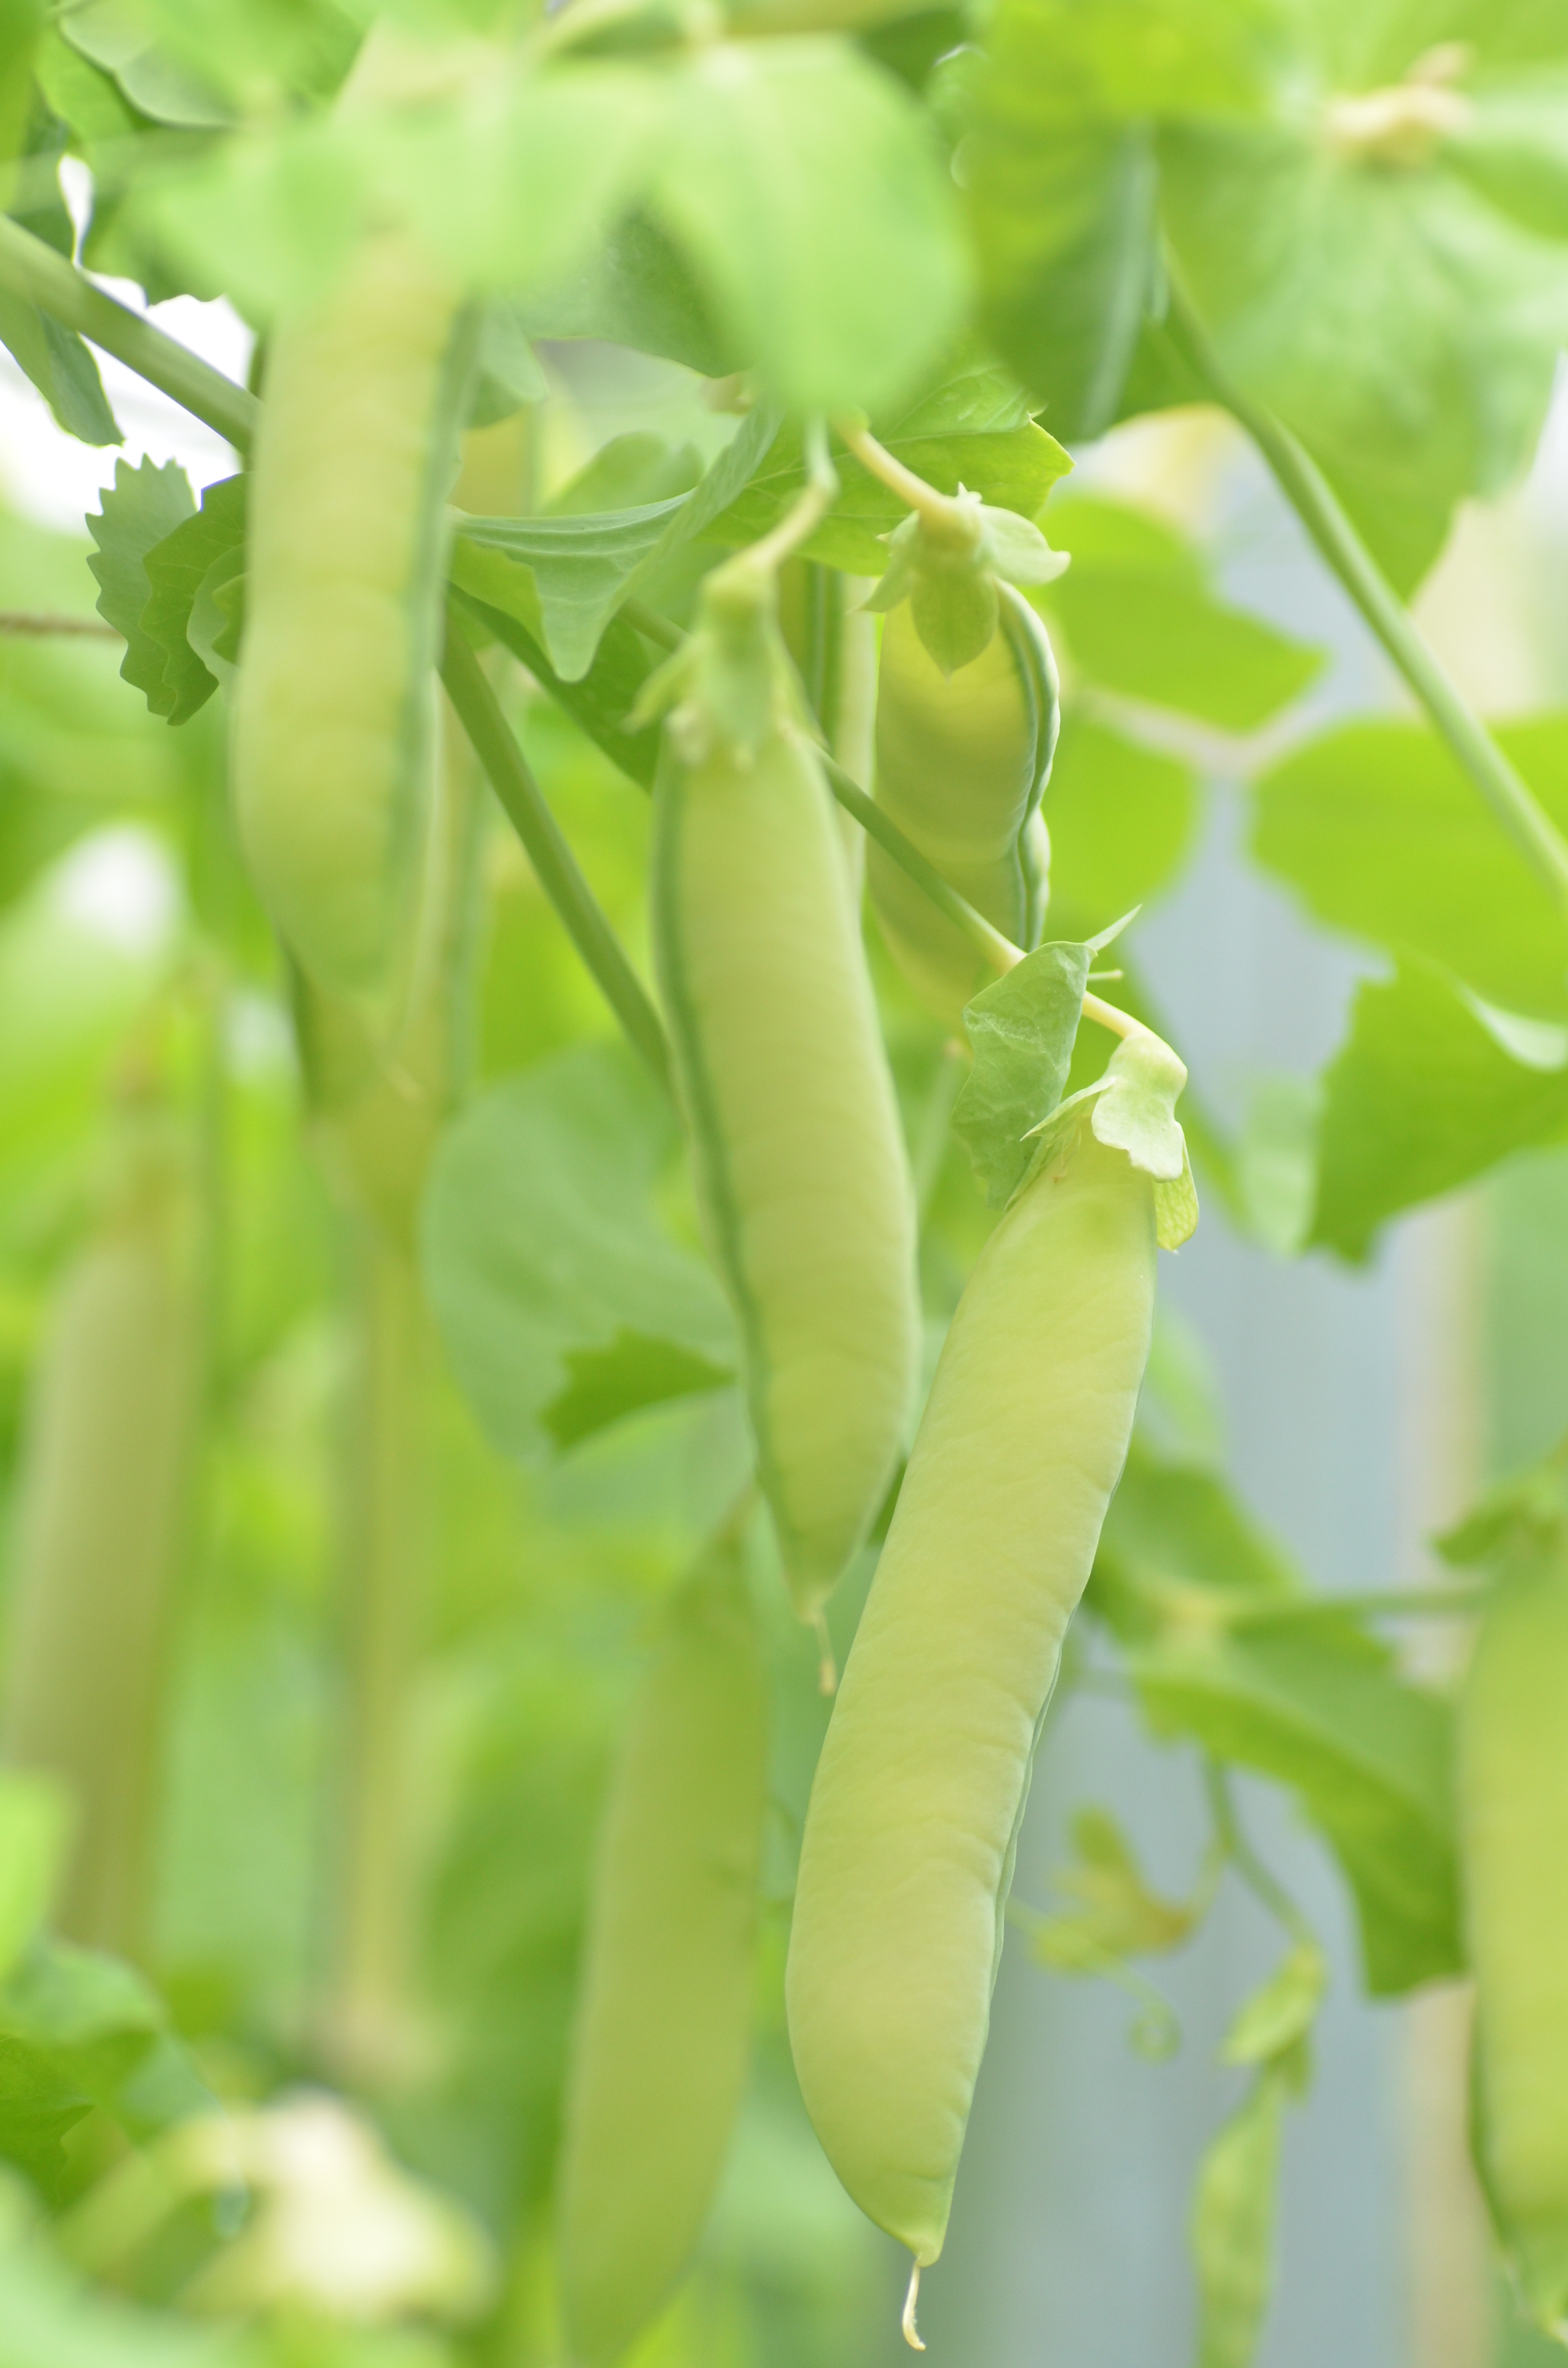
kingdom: Plantae
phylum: Tracheophyta
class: Magnoliopsida
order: Fabales
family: Fabaceae
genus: Lathyrus
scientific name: Lathyrus oleraceus
